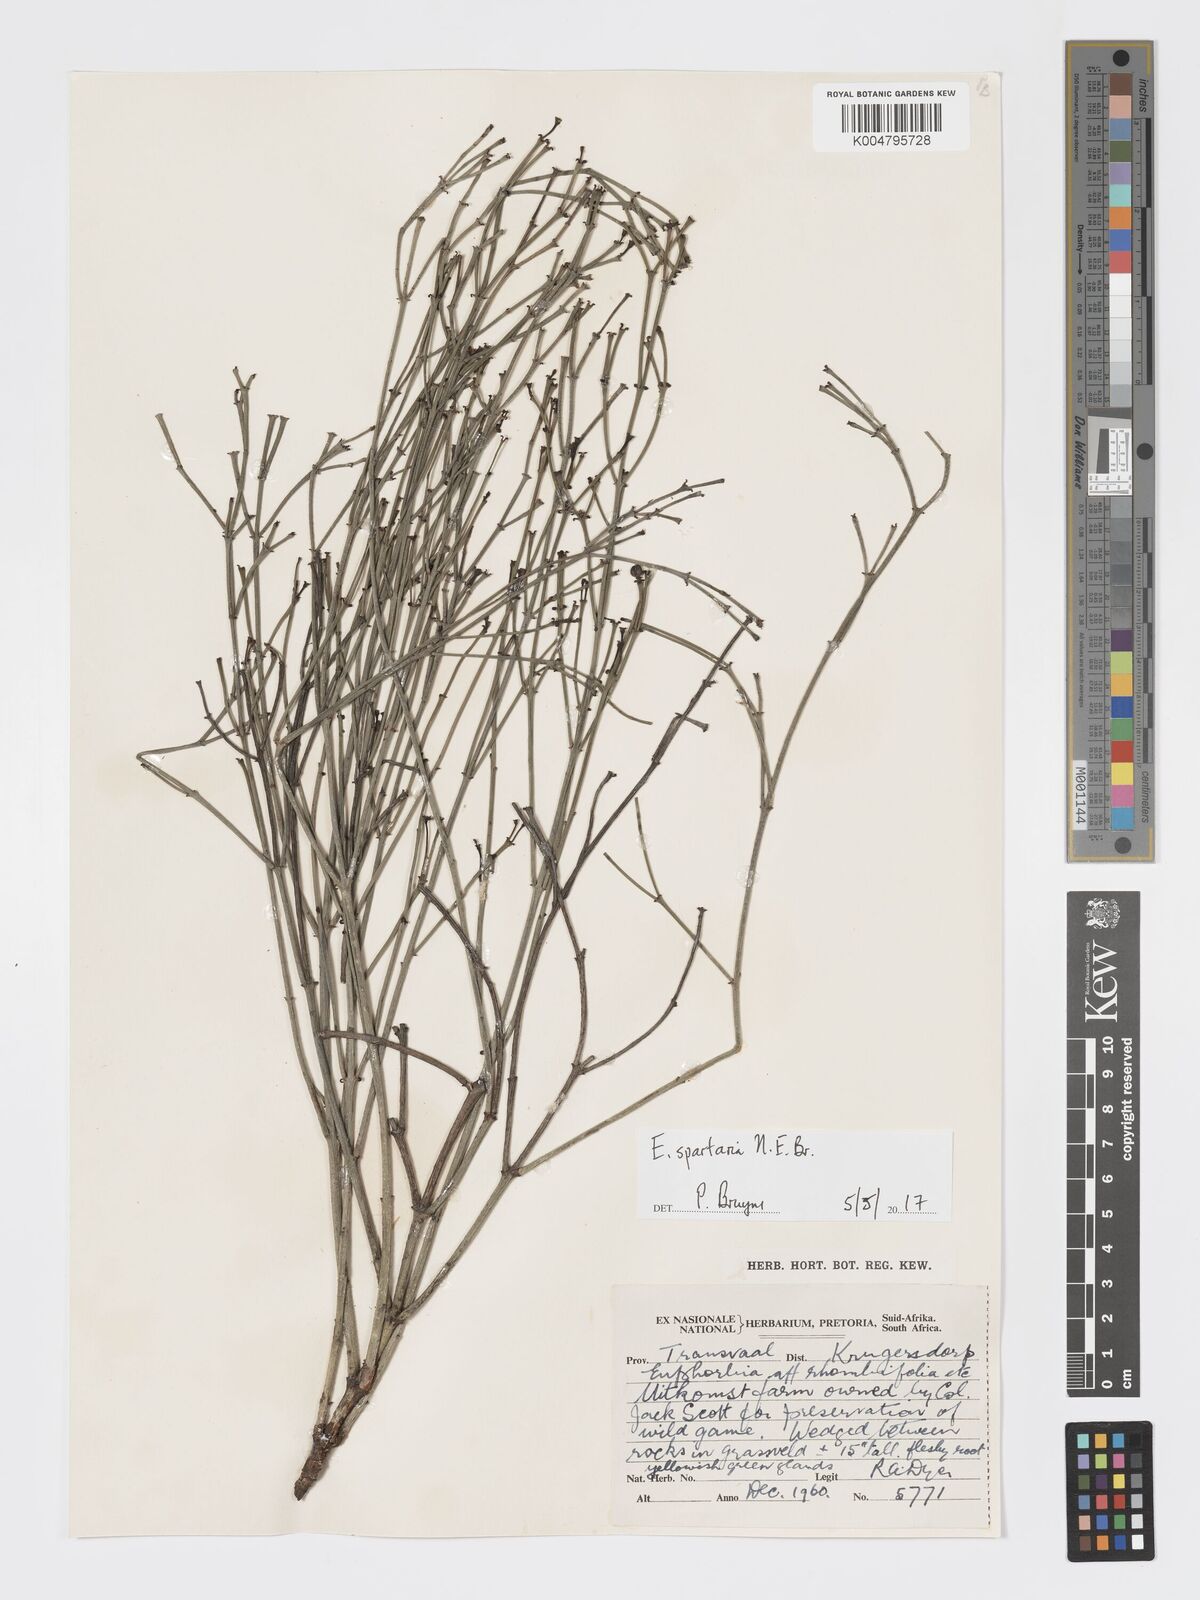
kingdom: Plantae
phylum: Tracheophyta
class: Magnoliopsida
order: Malpighiales
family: Euphorbiaceae
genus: Euphorbia
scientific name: Euphorbia spartaria
